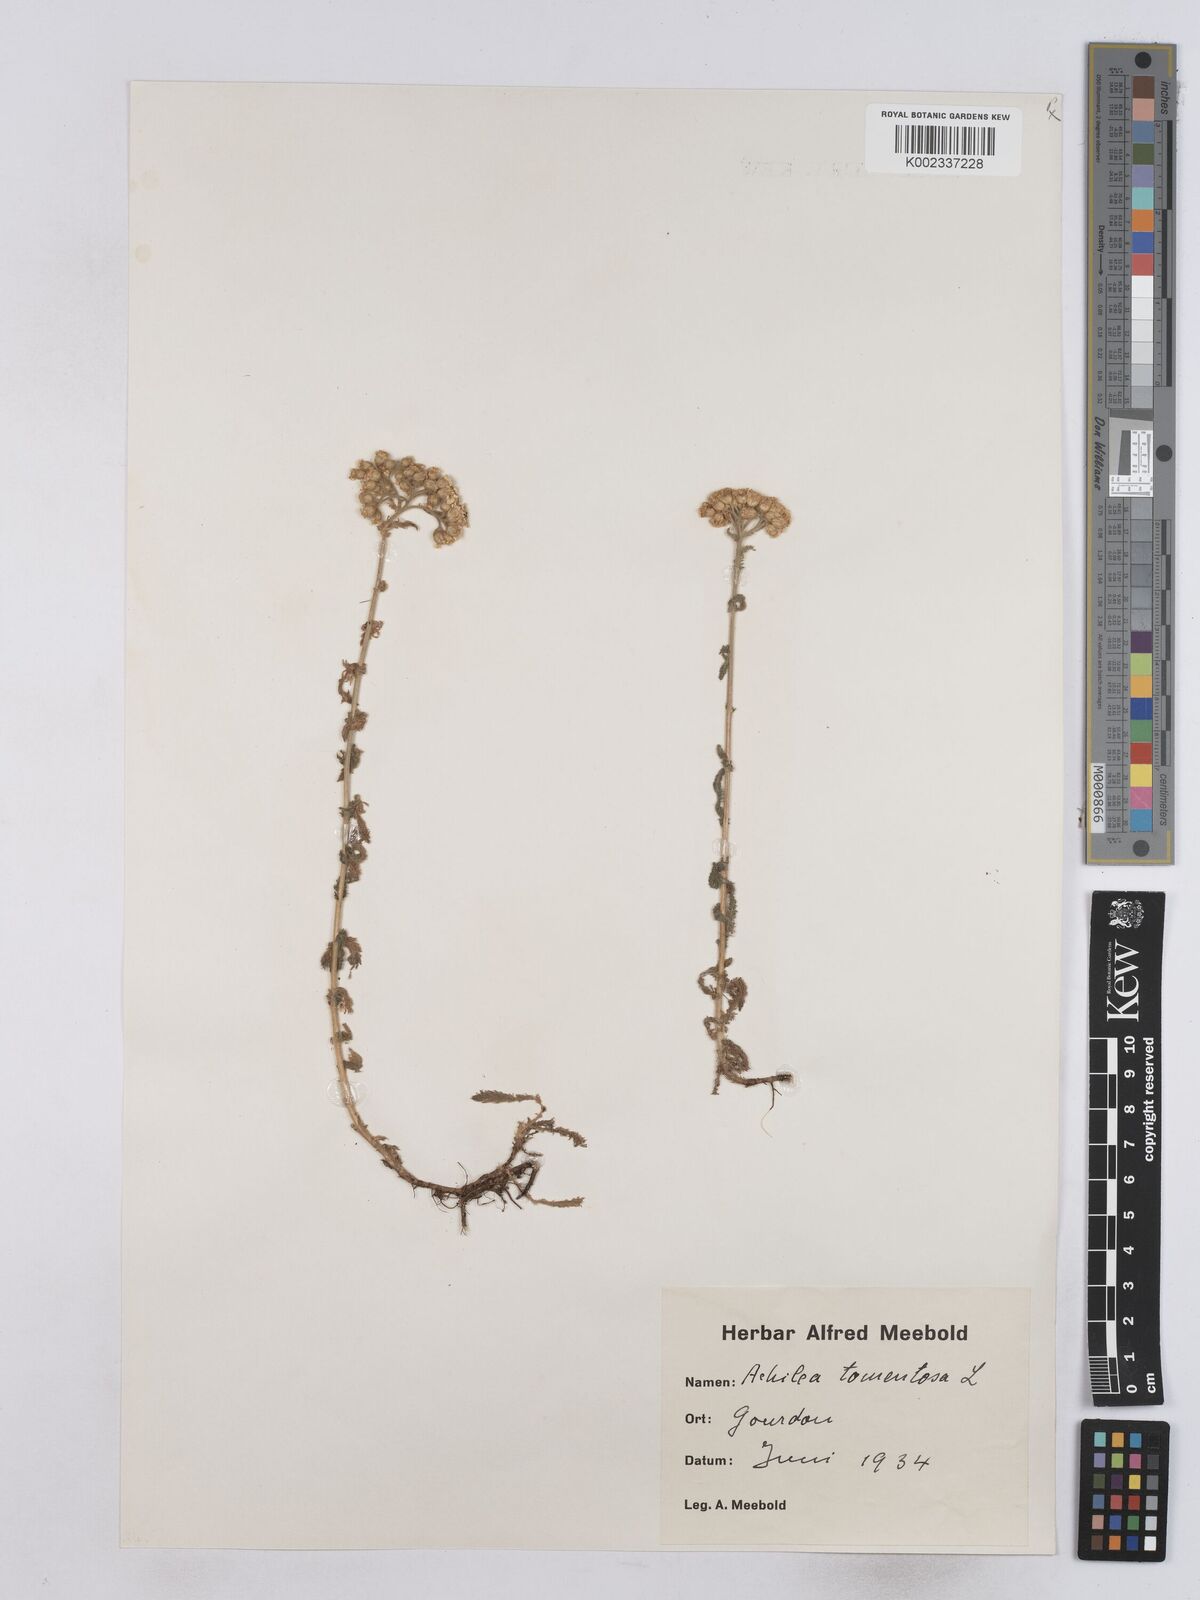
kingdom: Plantae
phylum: Tracheophyta
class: Magnoliopsida
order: Asterales
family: Asteraceae
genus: Achillea
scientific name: Achillea tomentosa
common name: Yellow milfoil
